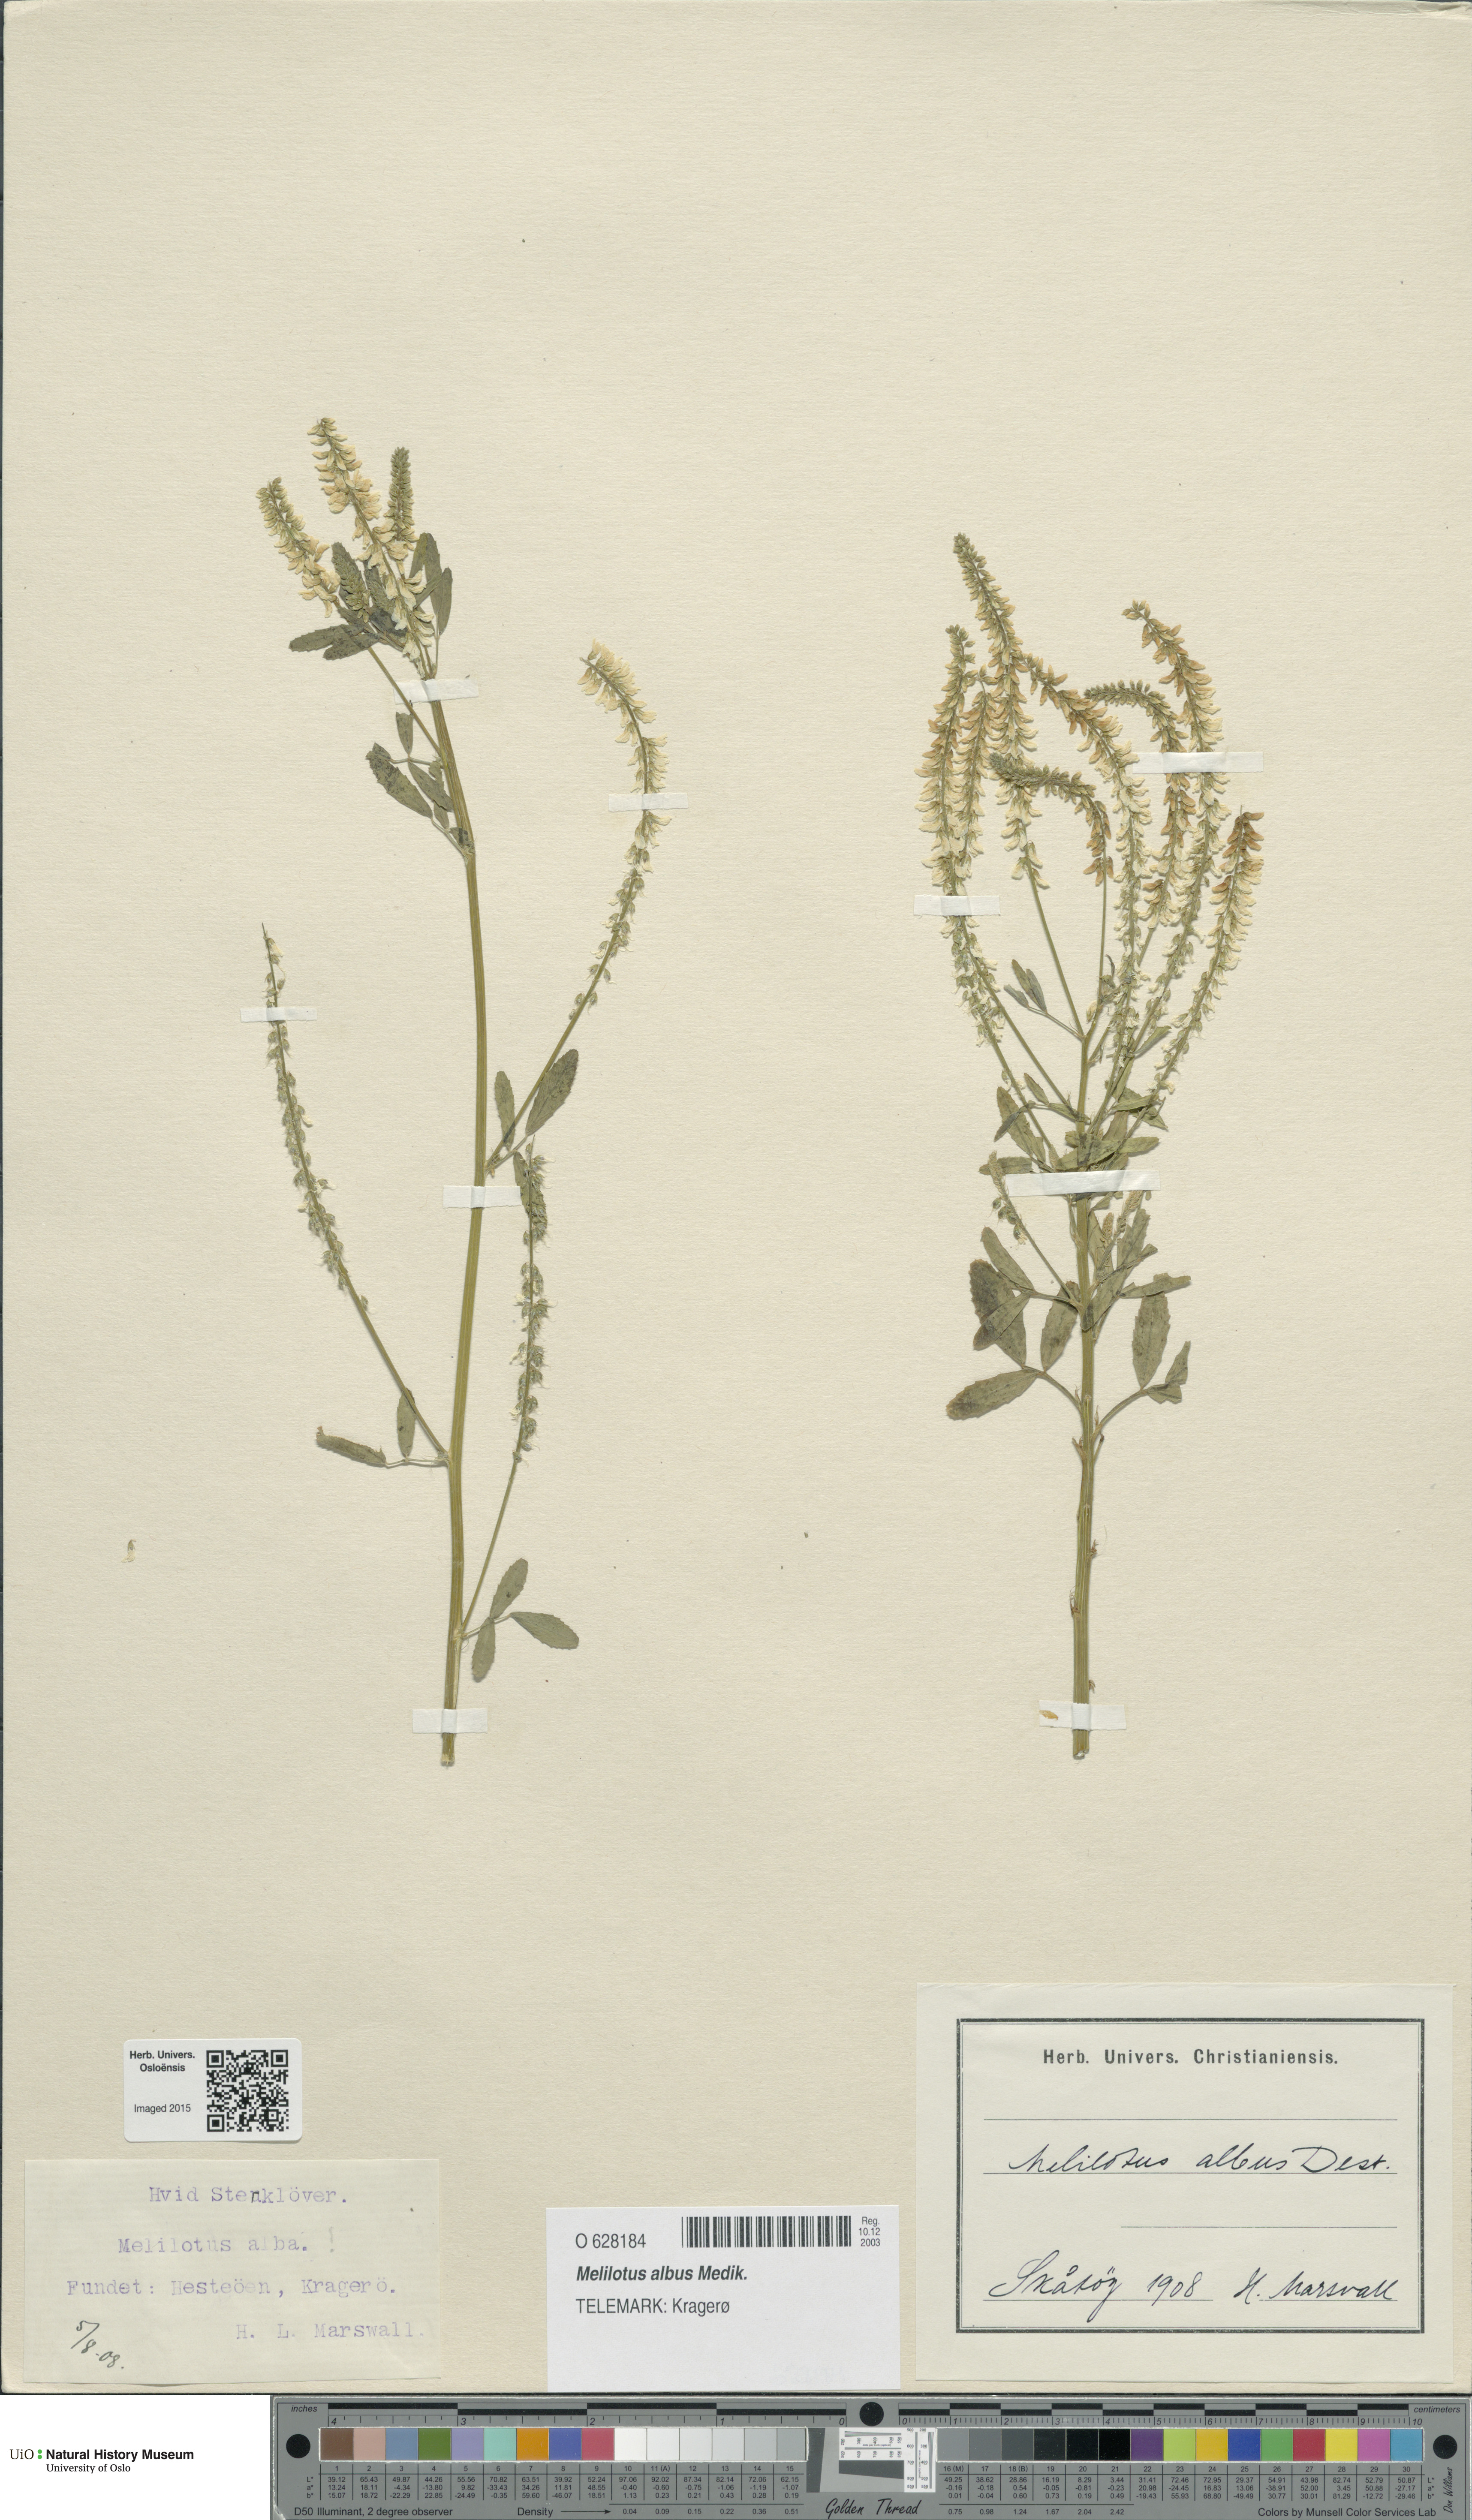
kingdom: Plantae
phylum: Tracheophyta
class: Magnoliopsida
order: Fabales
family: Fabaceae
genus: Melilotus
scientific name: Melilotus albus
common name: White melilot
